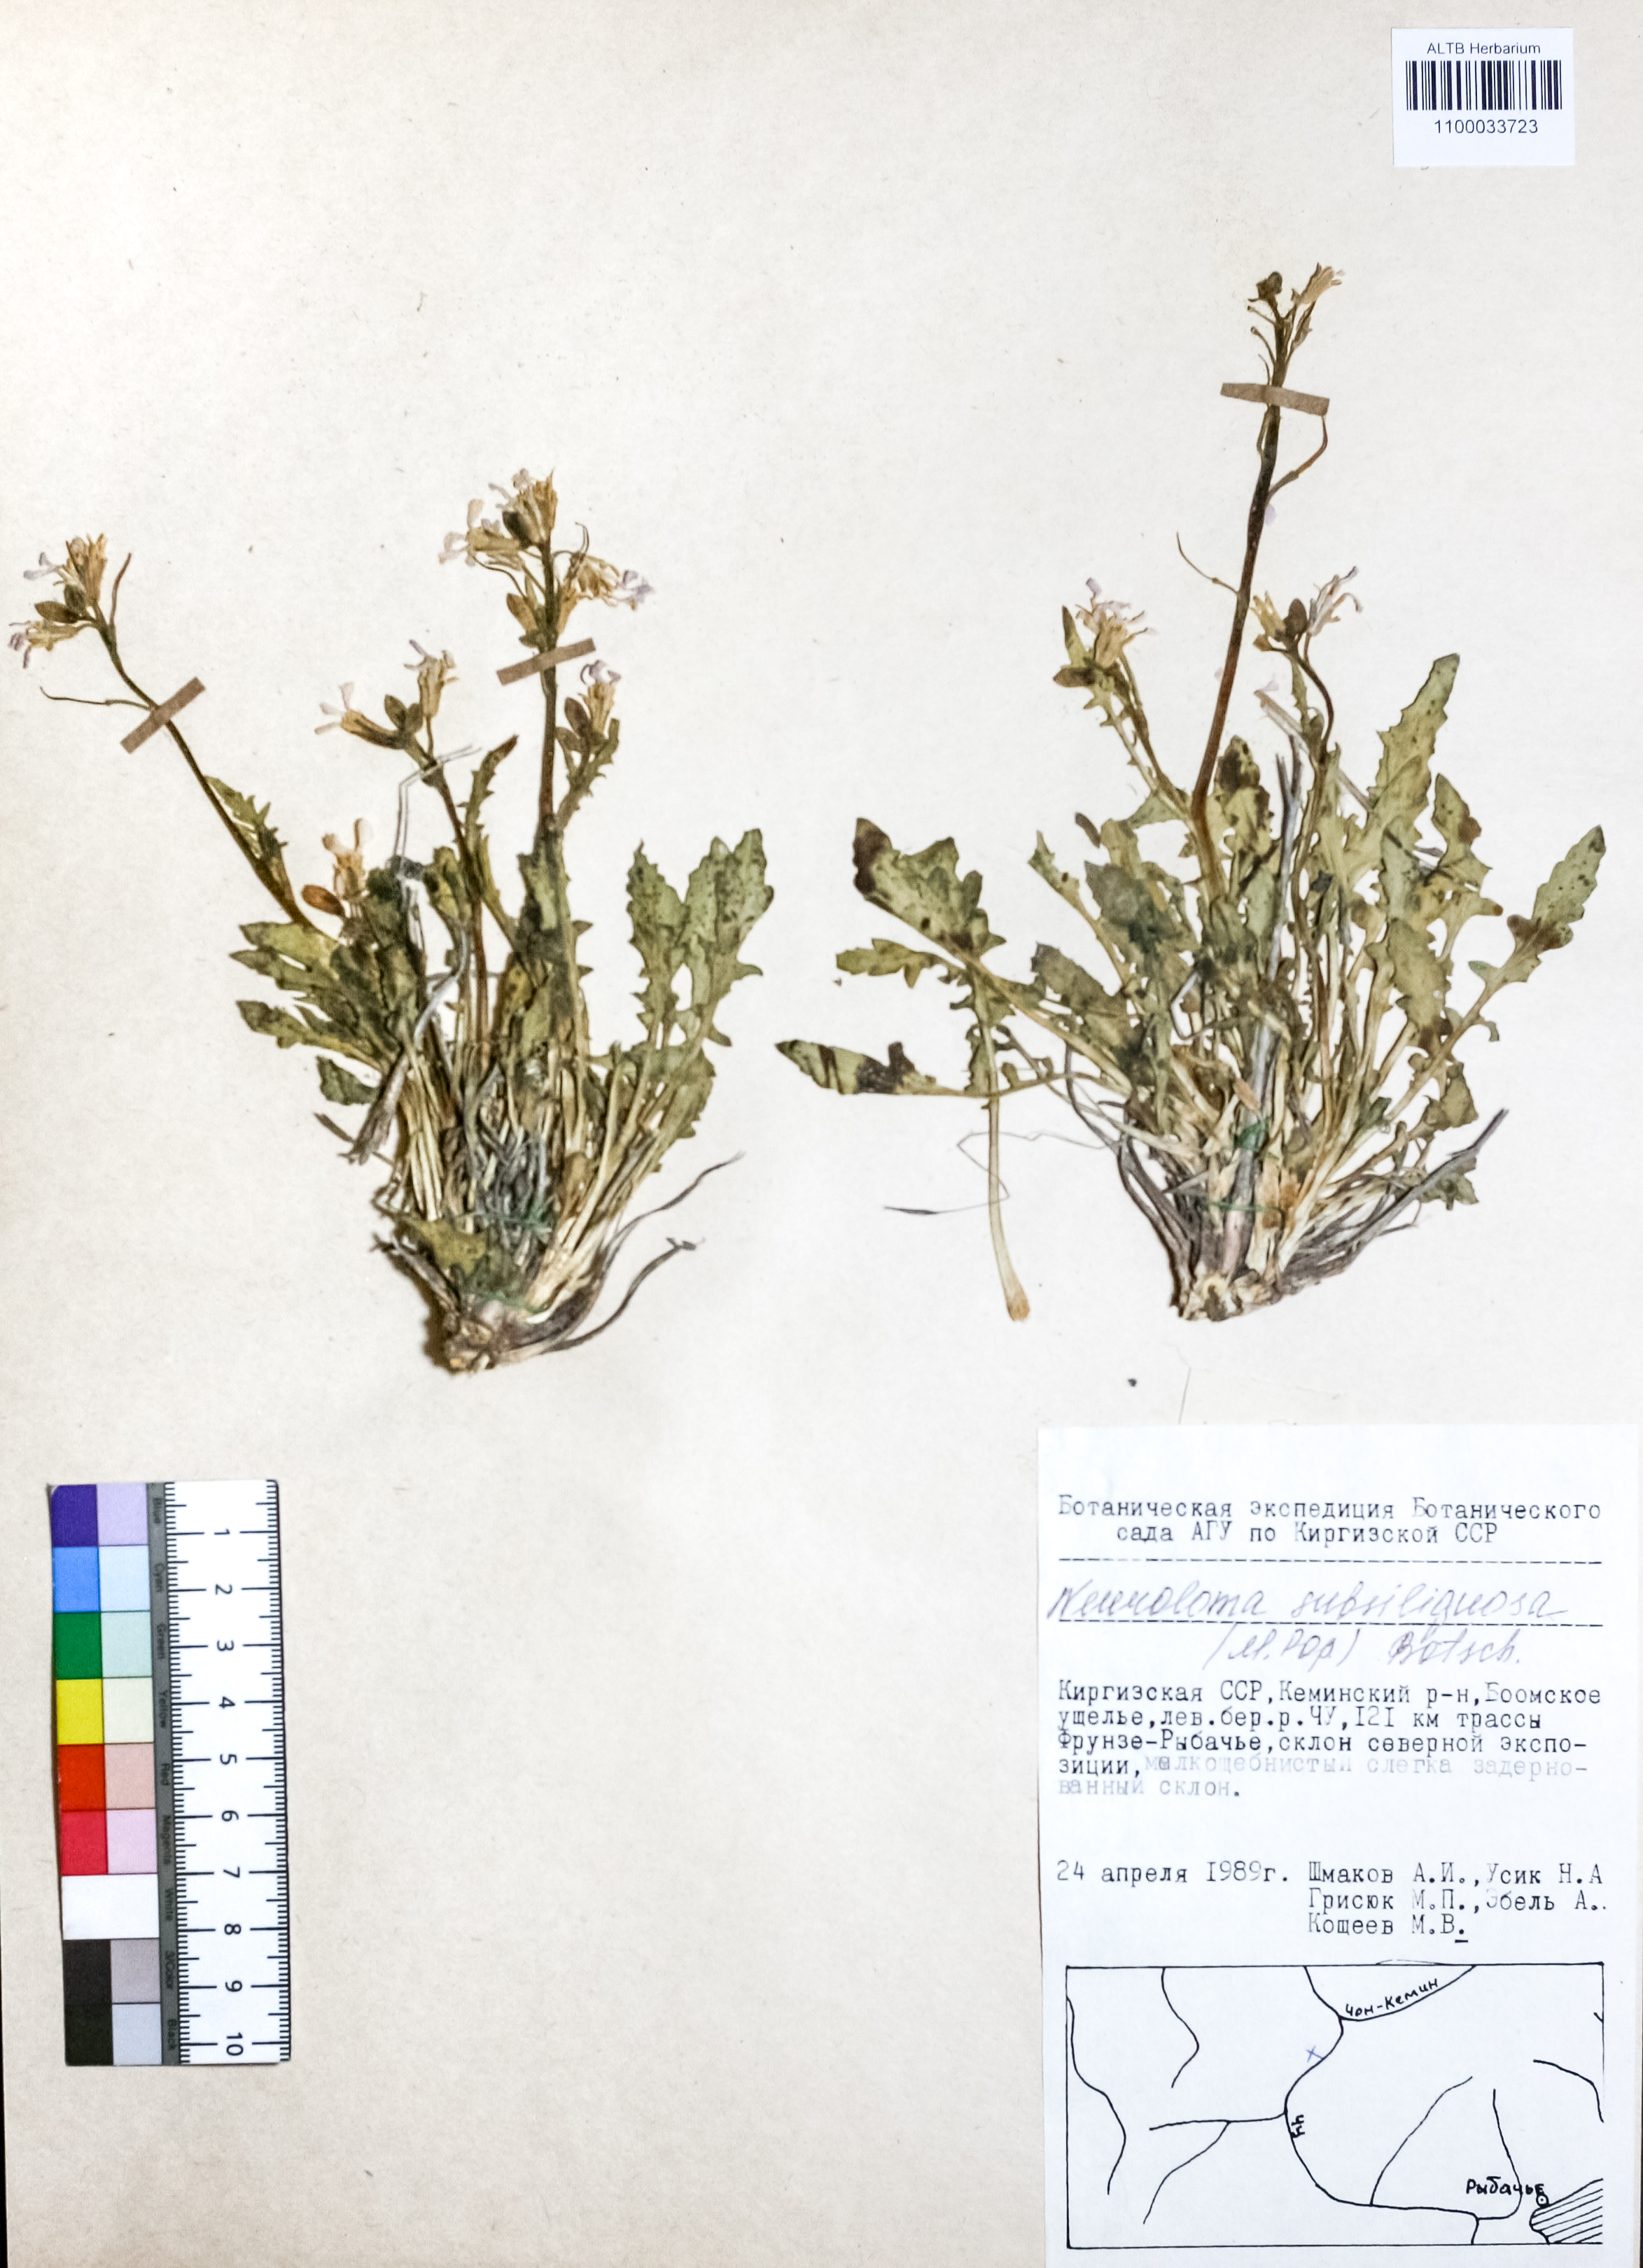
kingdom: Plantae
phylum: Tracheophyta
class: Magnoliopsida
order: Brassicales
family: Brassicaceae
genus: Parrya
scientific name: Parrya subsiliquosa
